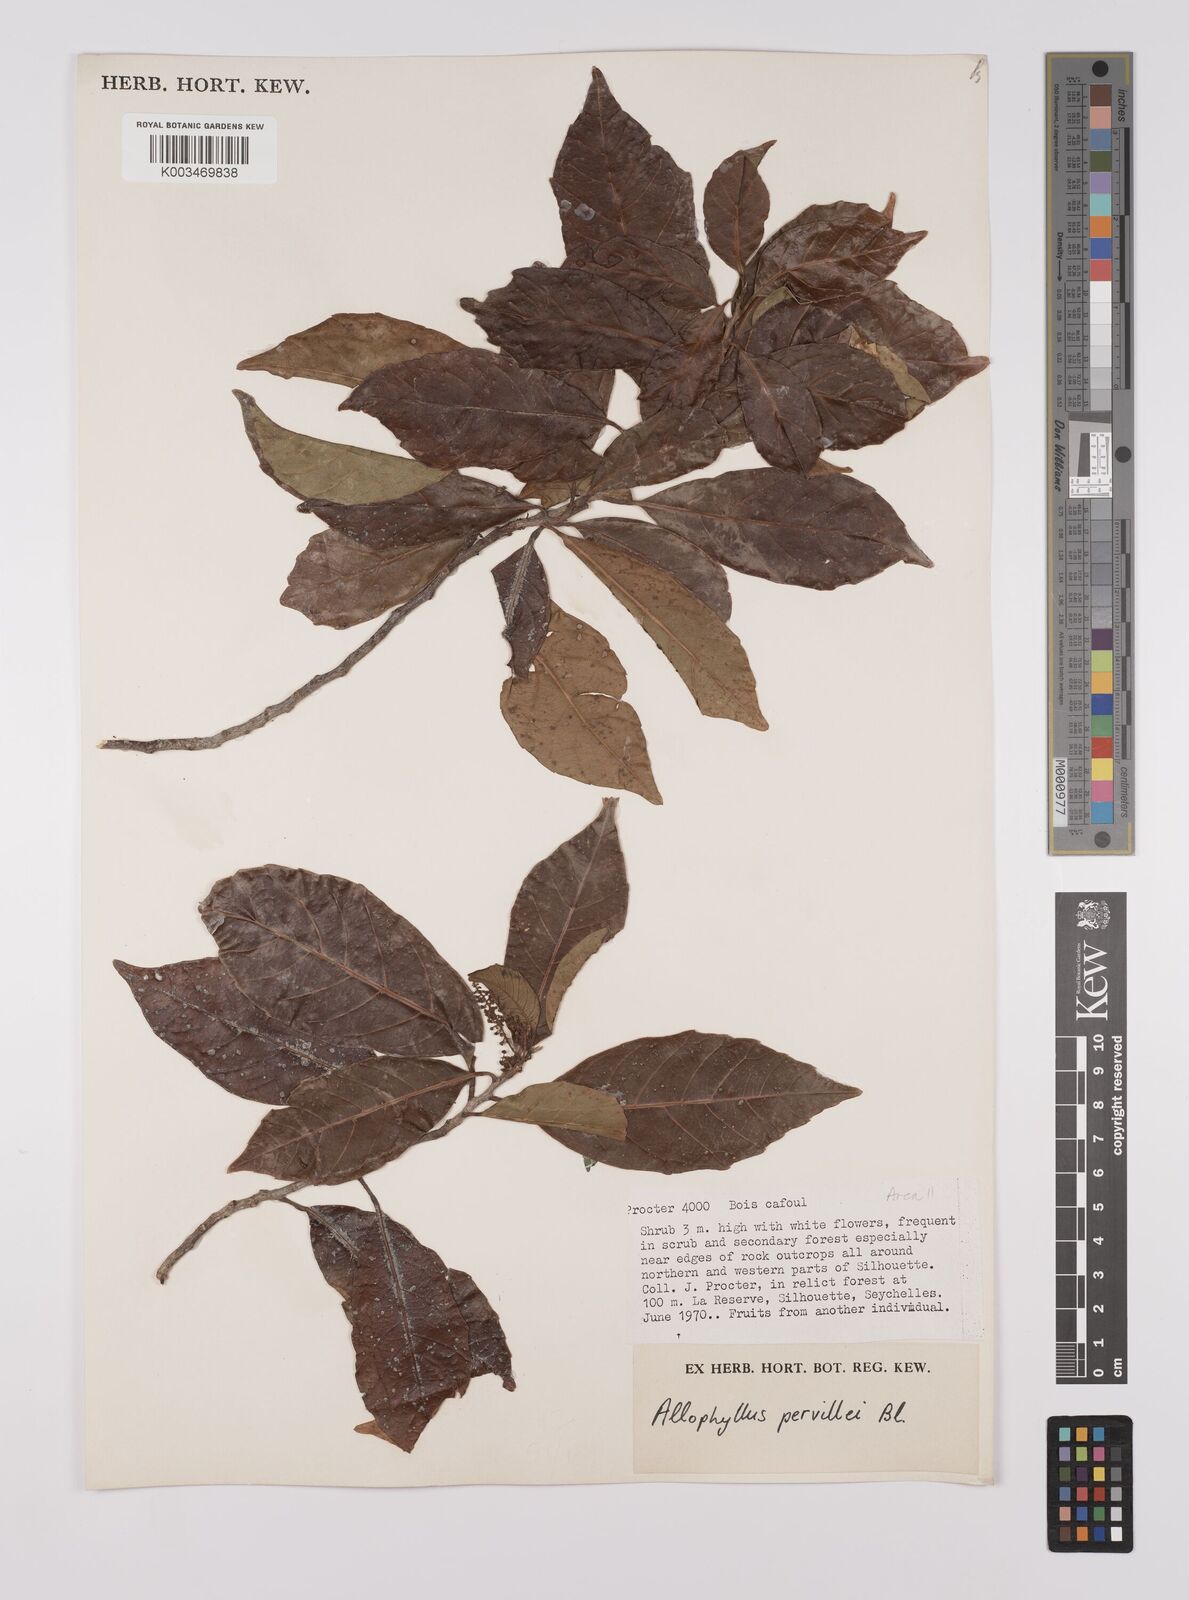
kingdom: Plantae
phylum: Tracheophyta
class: Magnoliopsida
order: Sapindales
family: Sapindaceae
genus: Allophylus
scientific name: Allophylus pervillei
